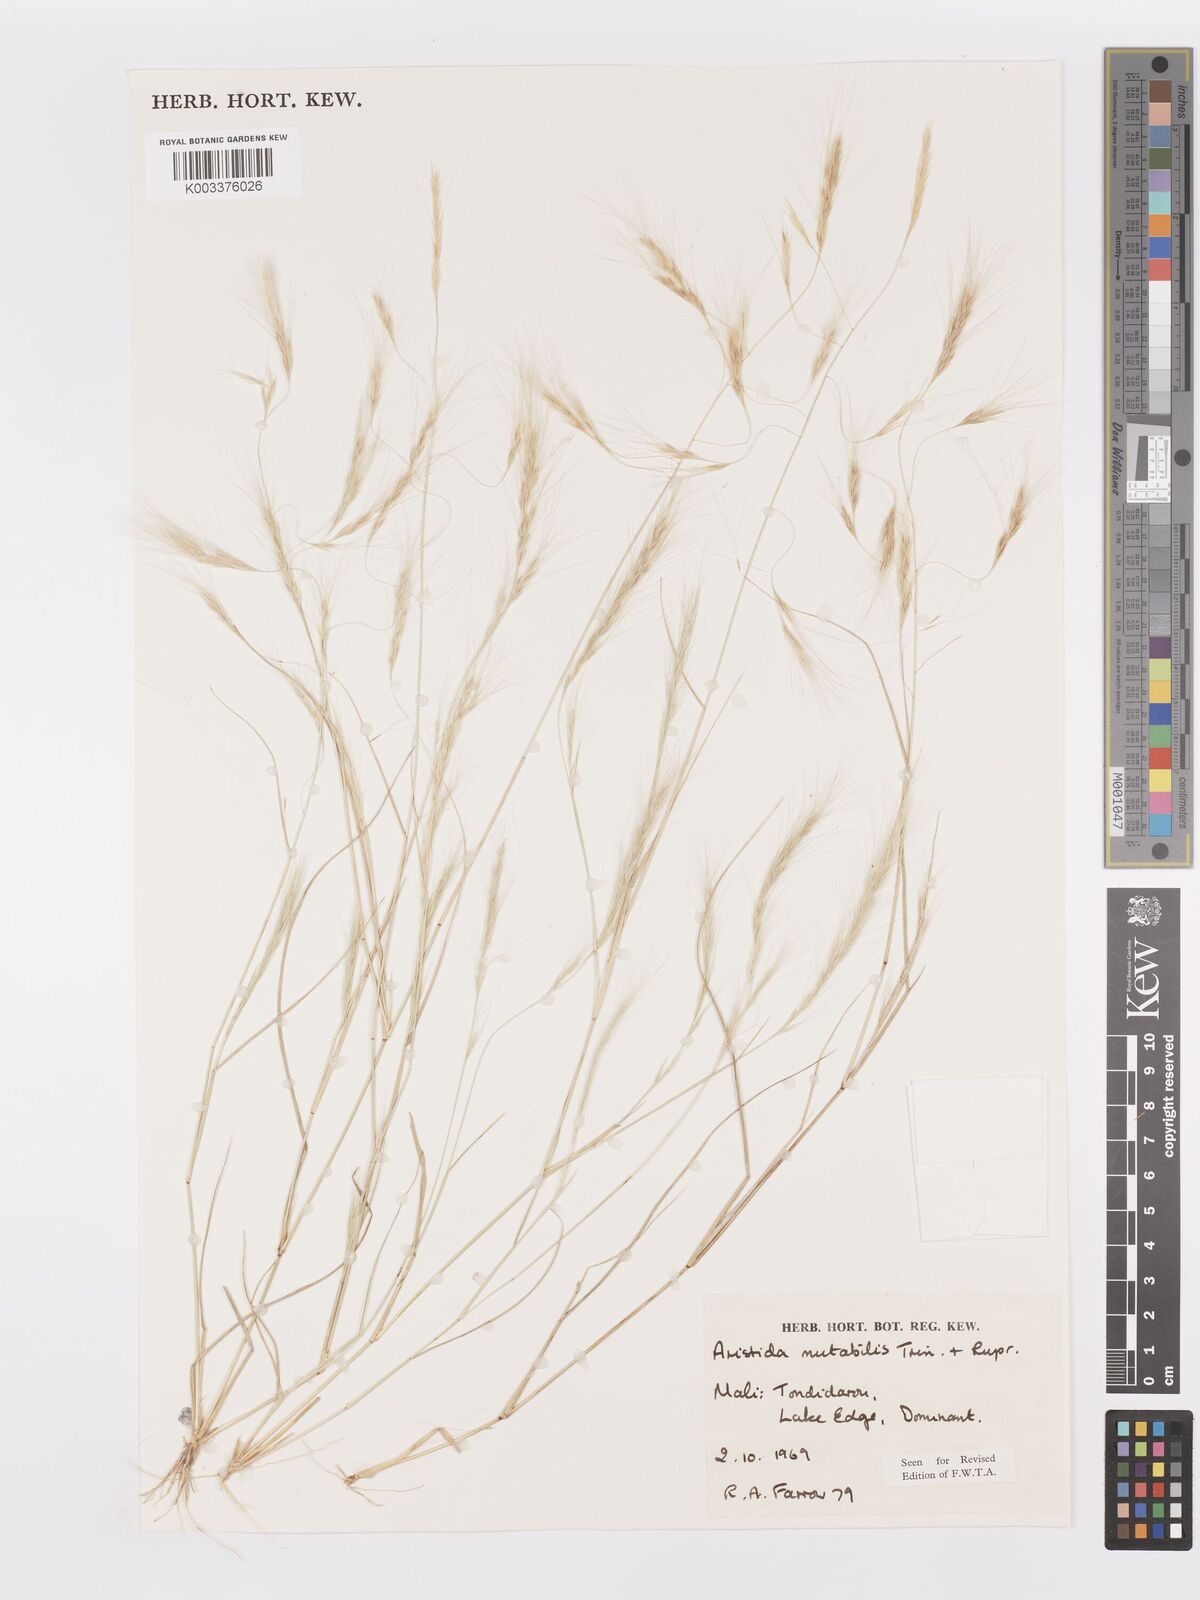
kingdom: Plantae
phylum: Tracheophyta
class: Liliopsida
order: Poales
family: Poaceae
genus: Aristida
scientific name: Aristida mutabilis
